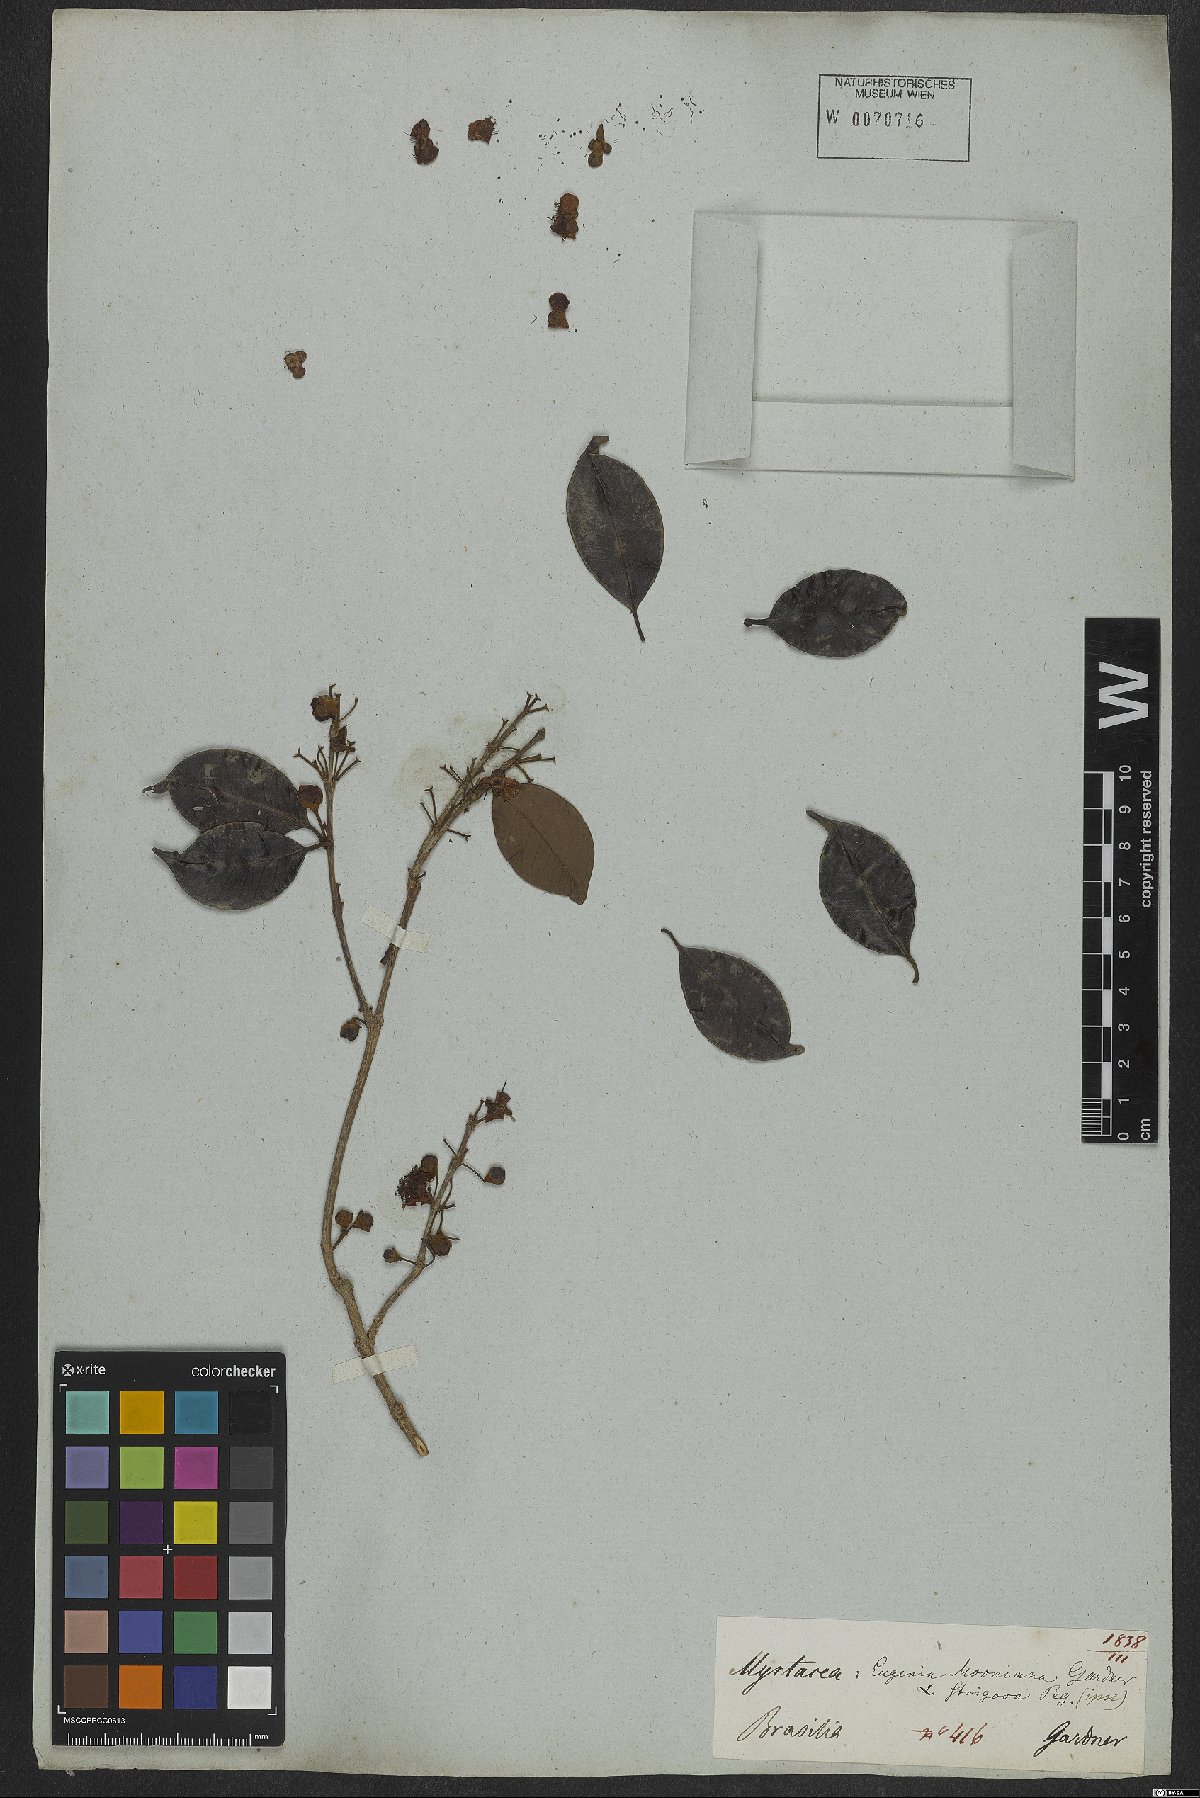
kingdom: Plantae
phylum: Tracheophyta
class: Magnoliopsida
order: Myrtales
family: Myrtaceae
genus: Eugenia
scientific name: Eugenia subundulata
